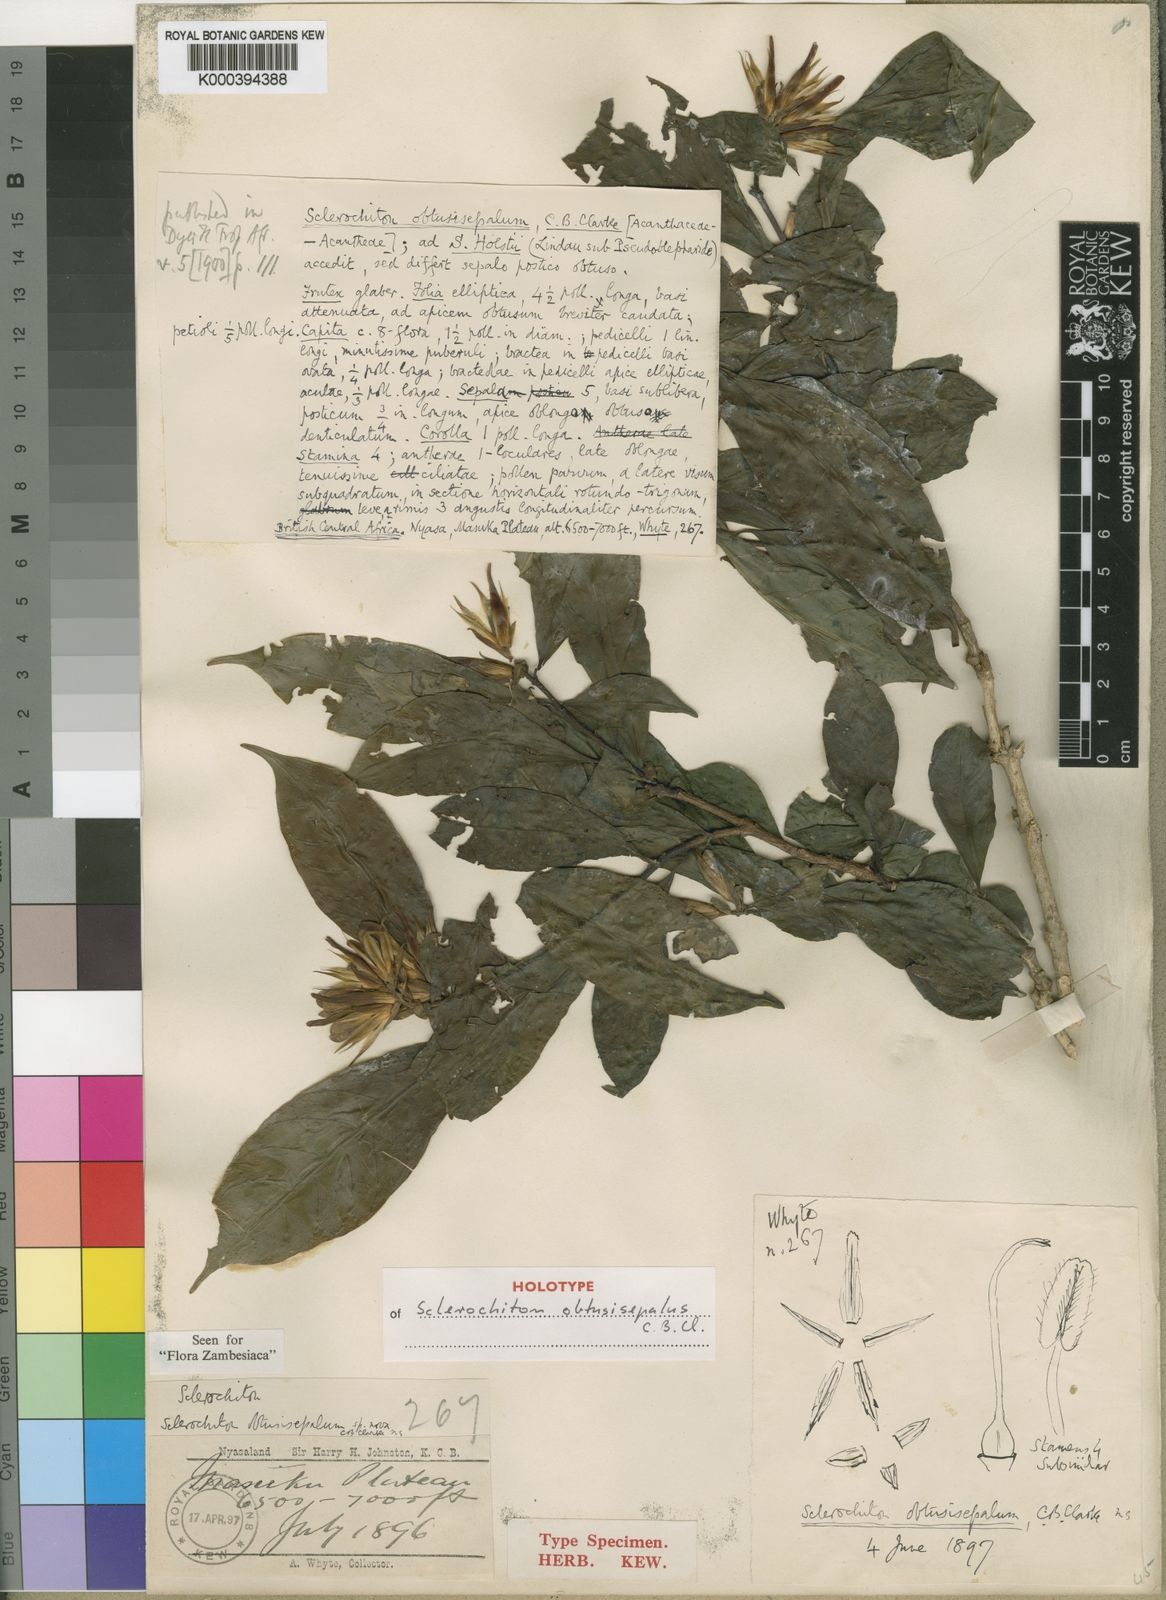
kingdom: Plantae
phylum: Tracheophyta
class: Magnoliopsida
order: Lamiales
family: Acanthaceae
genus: Sclerochiton
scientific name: Sclerochiton obtusisepalus
